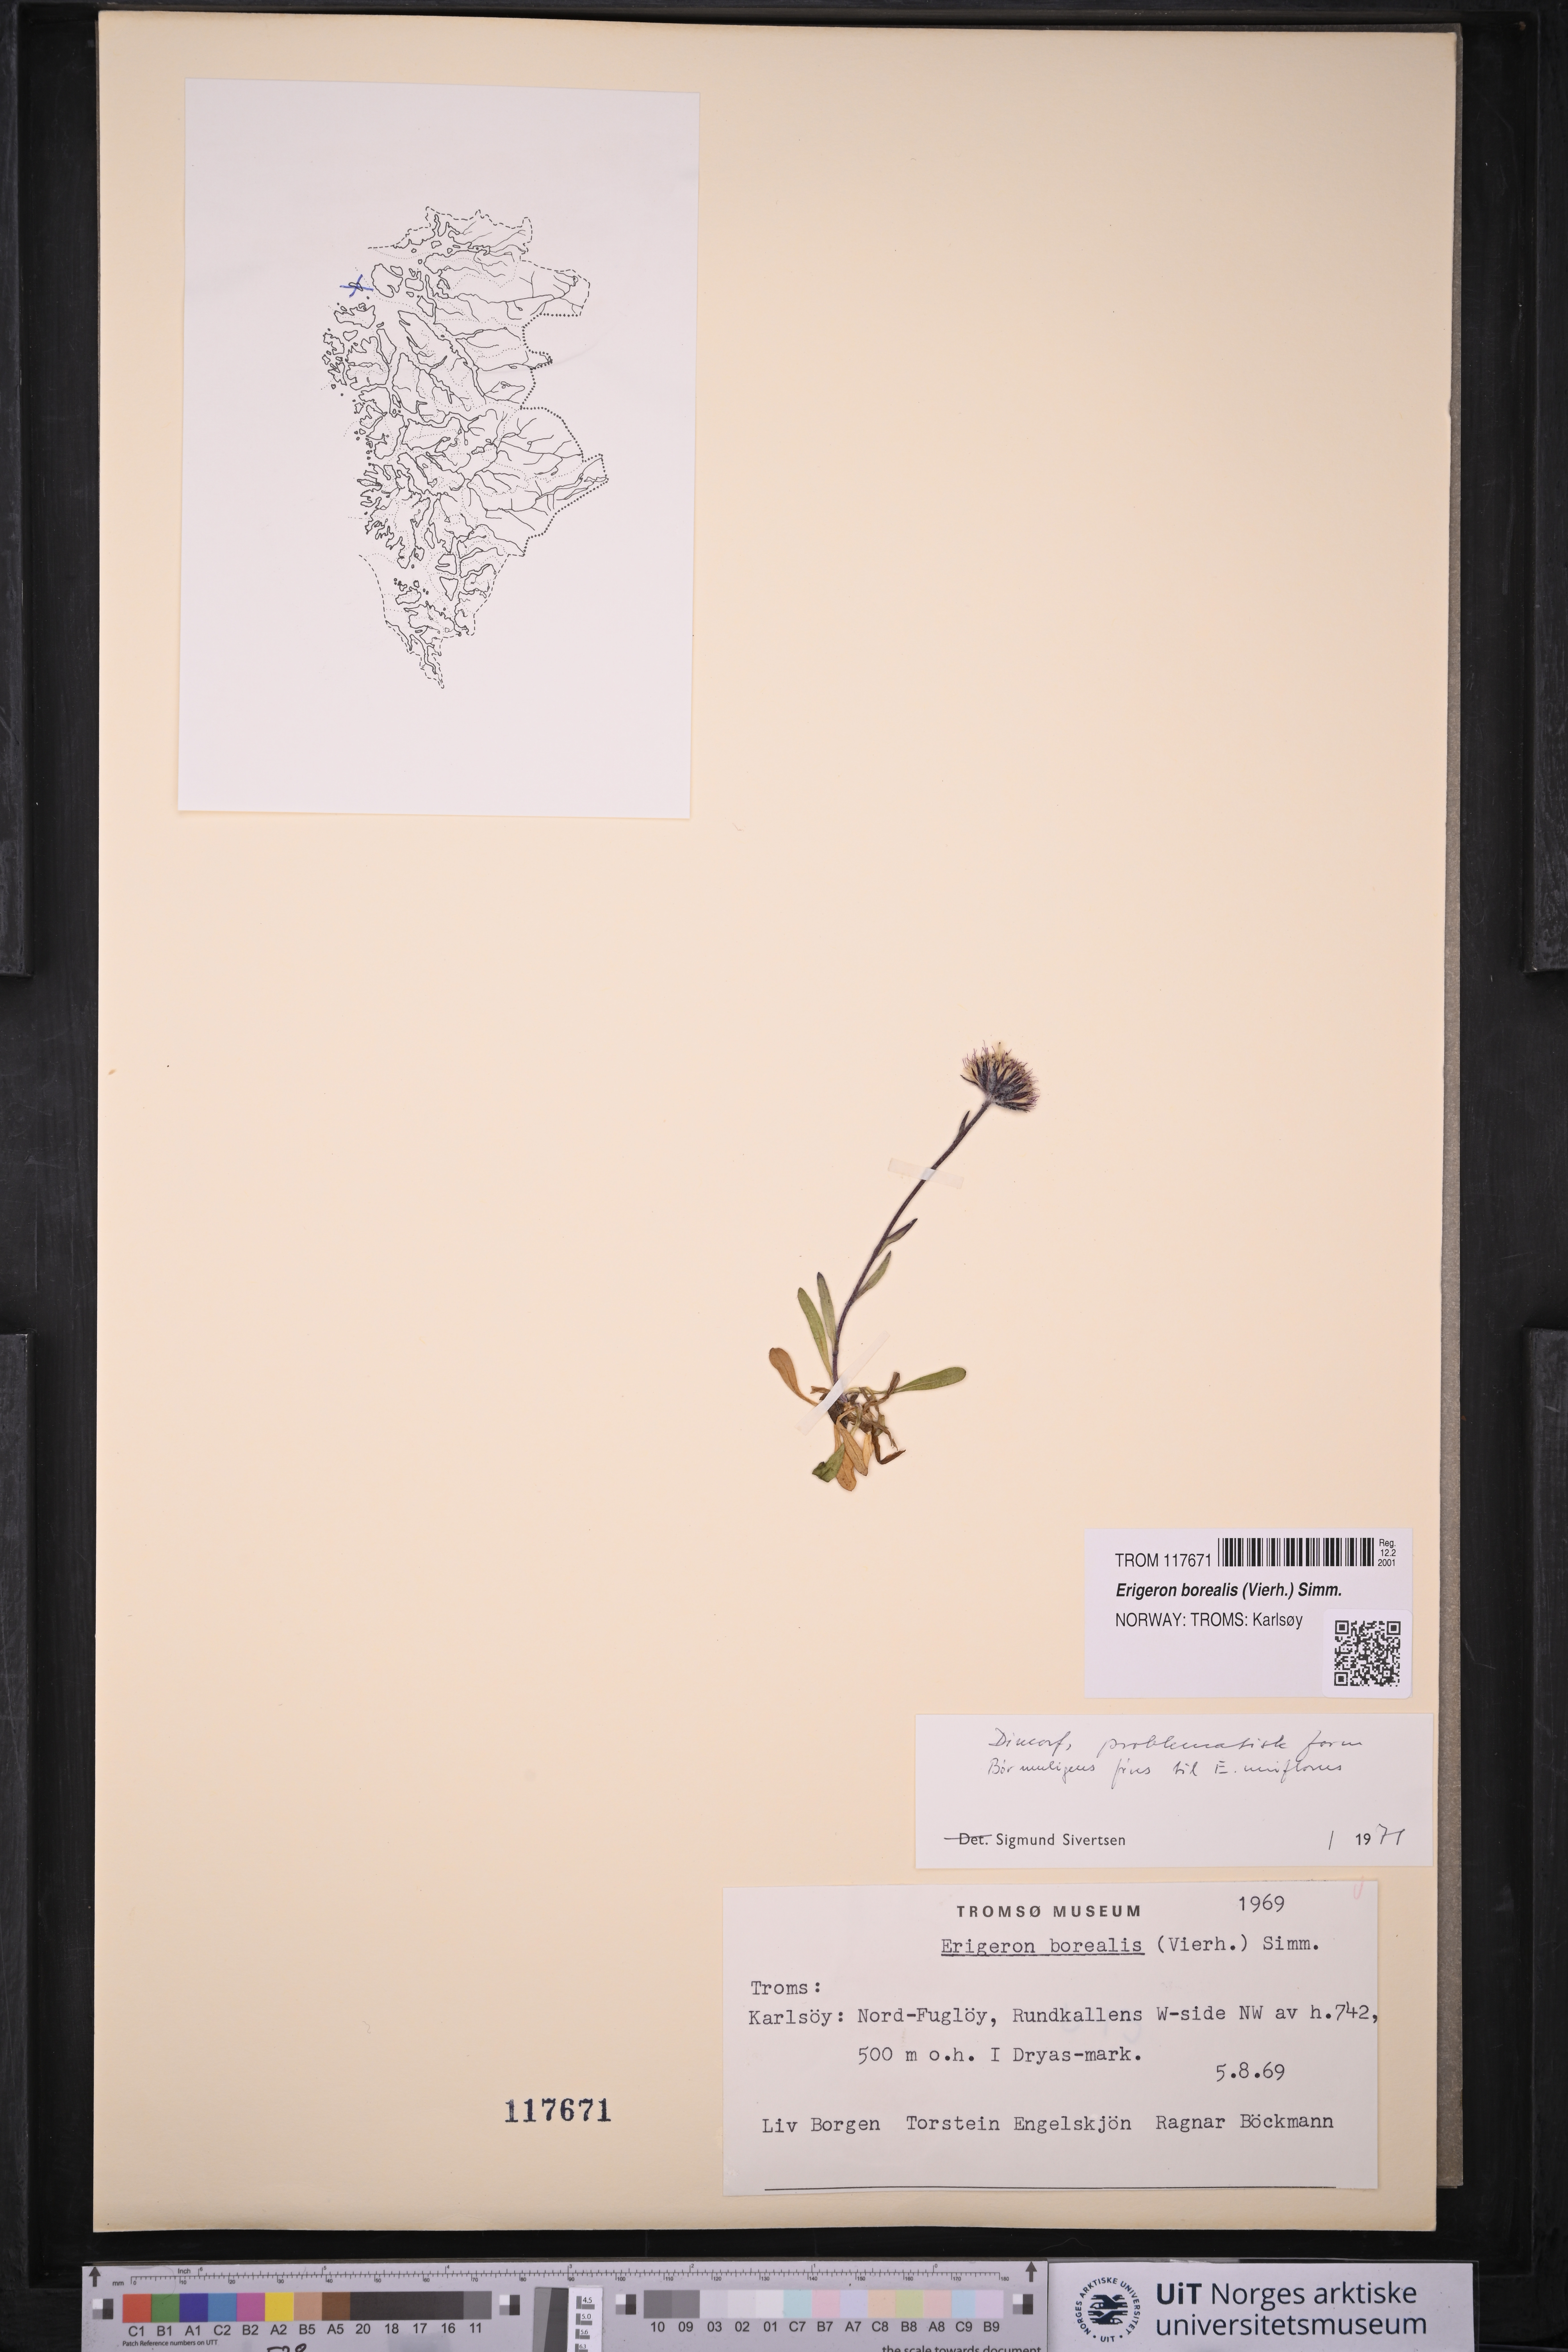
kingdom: Plantae
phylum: Tracheophyta
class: Magnoliopsida
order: Asterales
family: Asteraceae
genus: Erigeron
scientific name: Erigeron borealis
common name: Alpine fleabane
